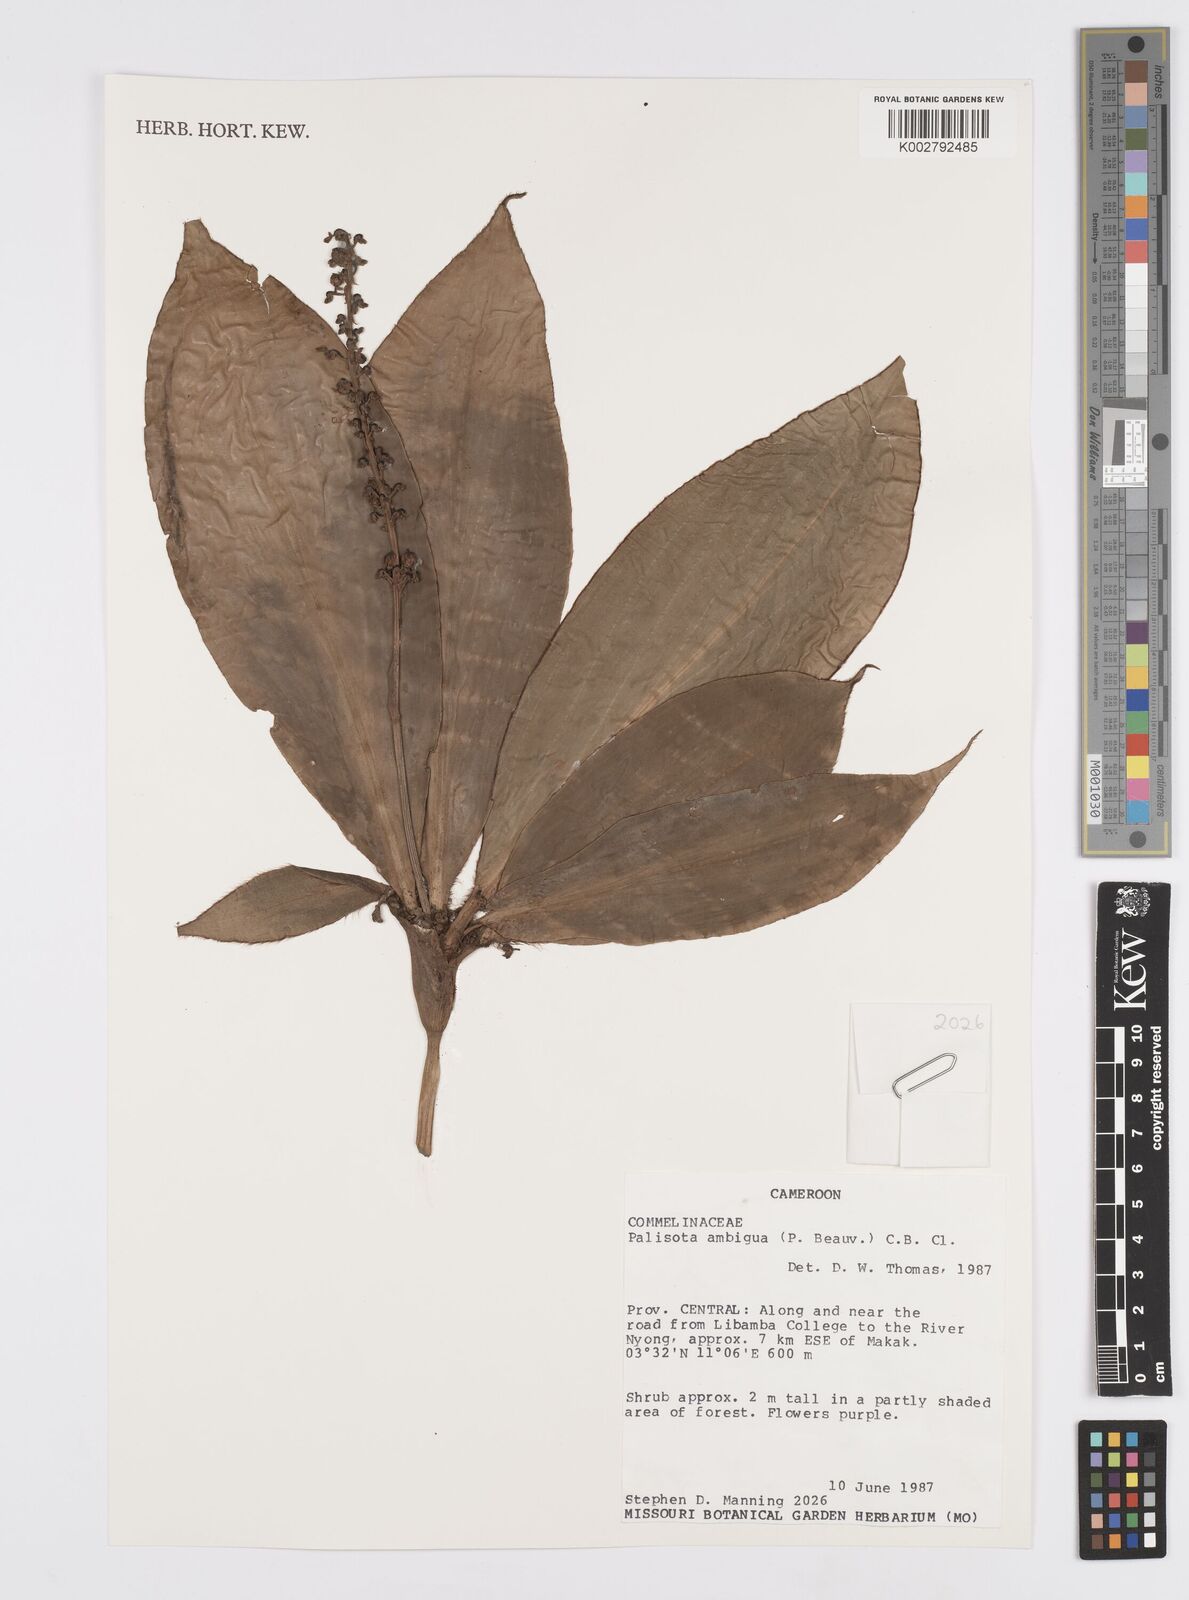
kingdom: Plantae
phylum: Tracheophyta
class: Liliopsida
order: Commelinales
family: Commelinaceae
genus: Palisota
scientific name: Palisota ambigua
